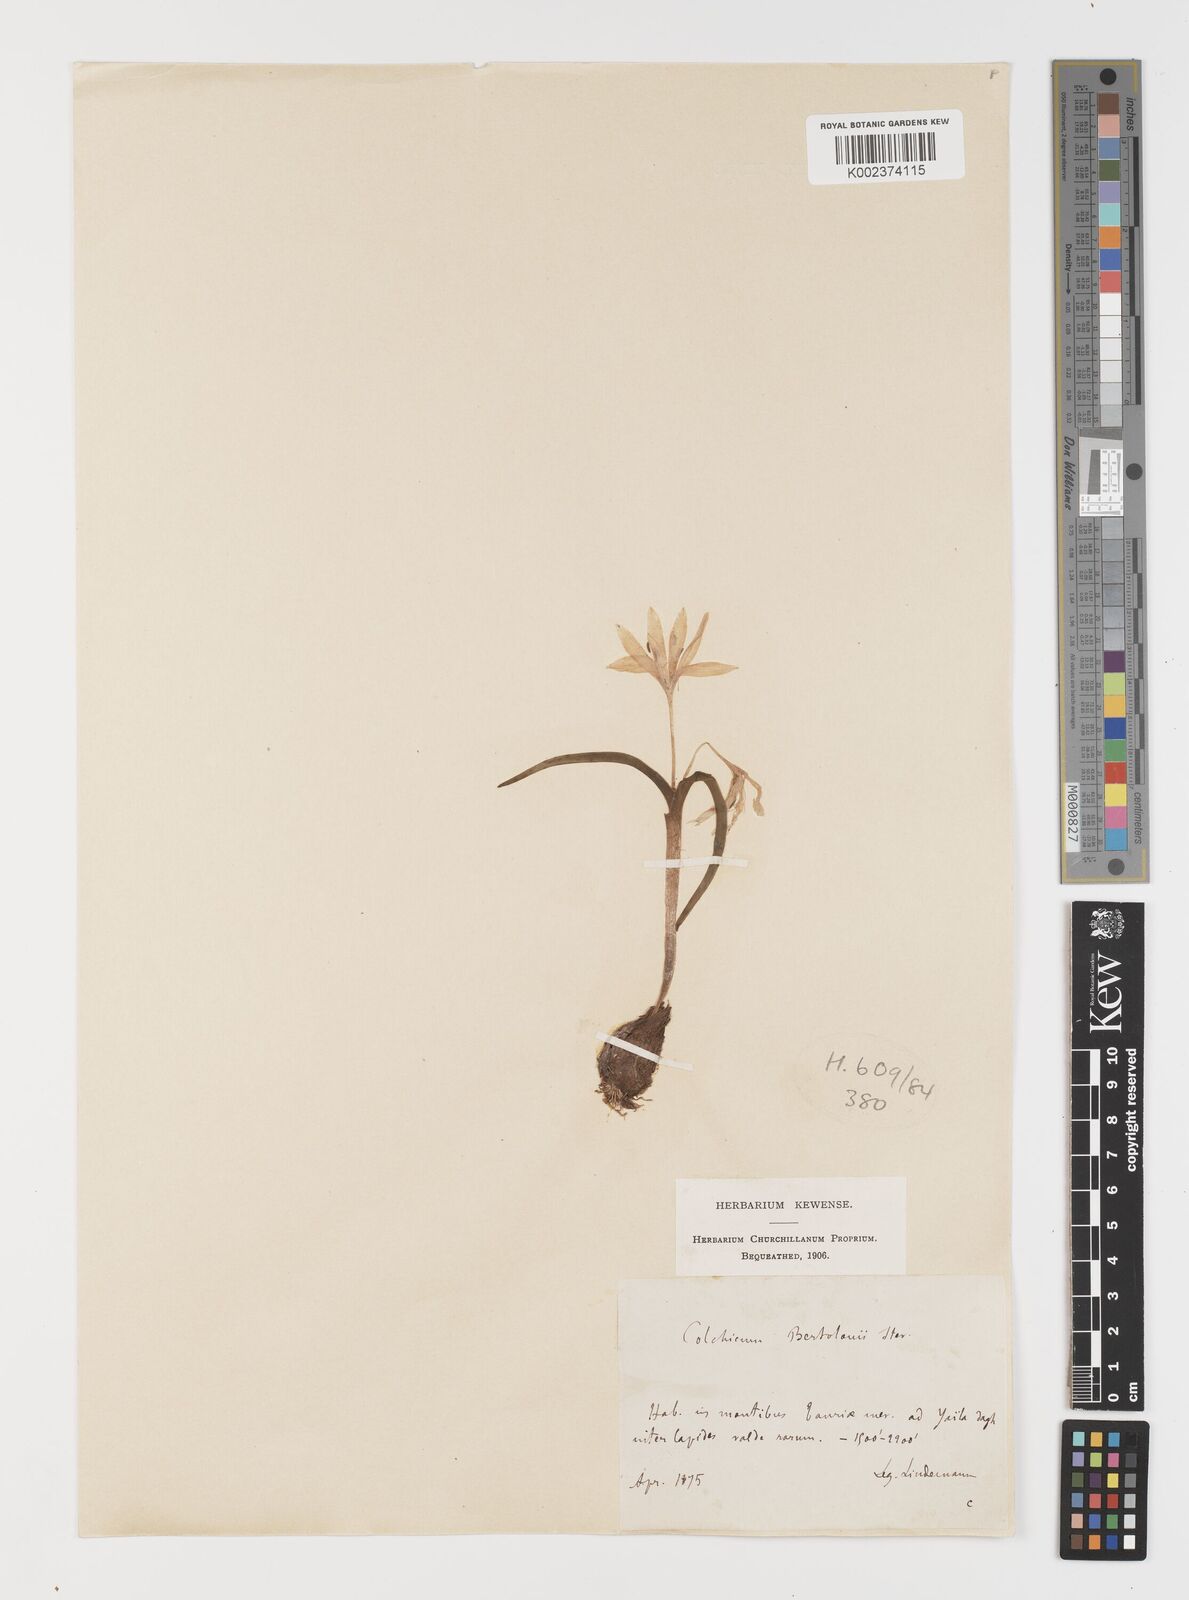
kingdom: Plantae
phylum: Tracheophyta
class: Liliopsida
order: Liliales
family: Colchicaceae
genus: Colchicum
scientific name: Colchicum cupanii
